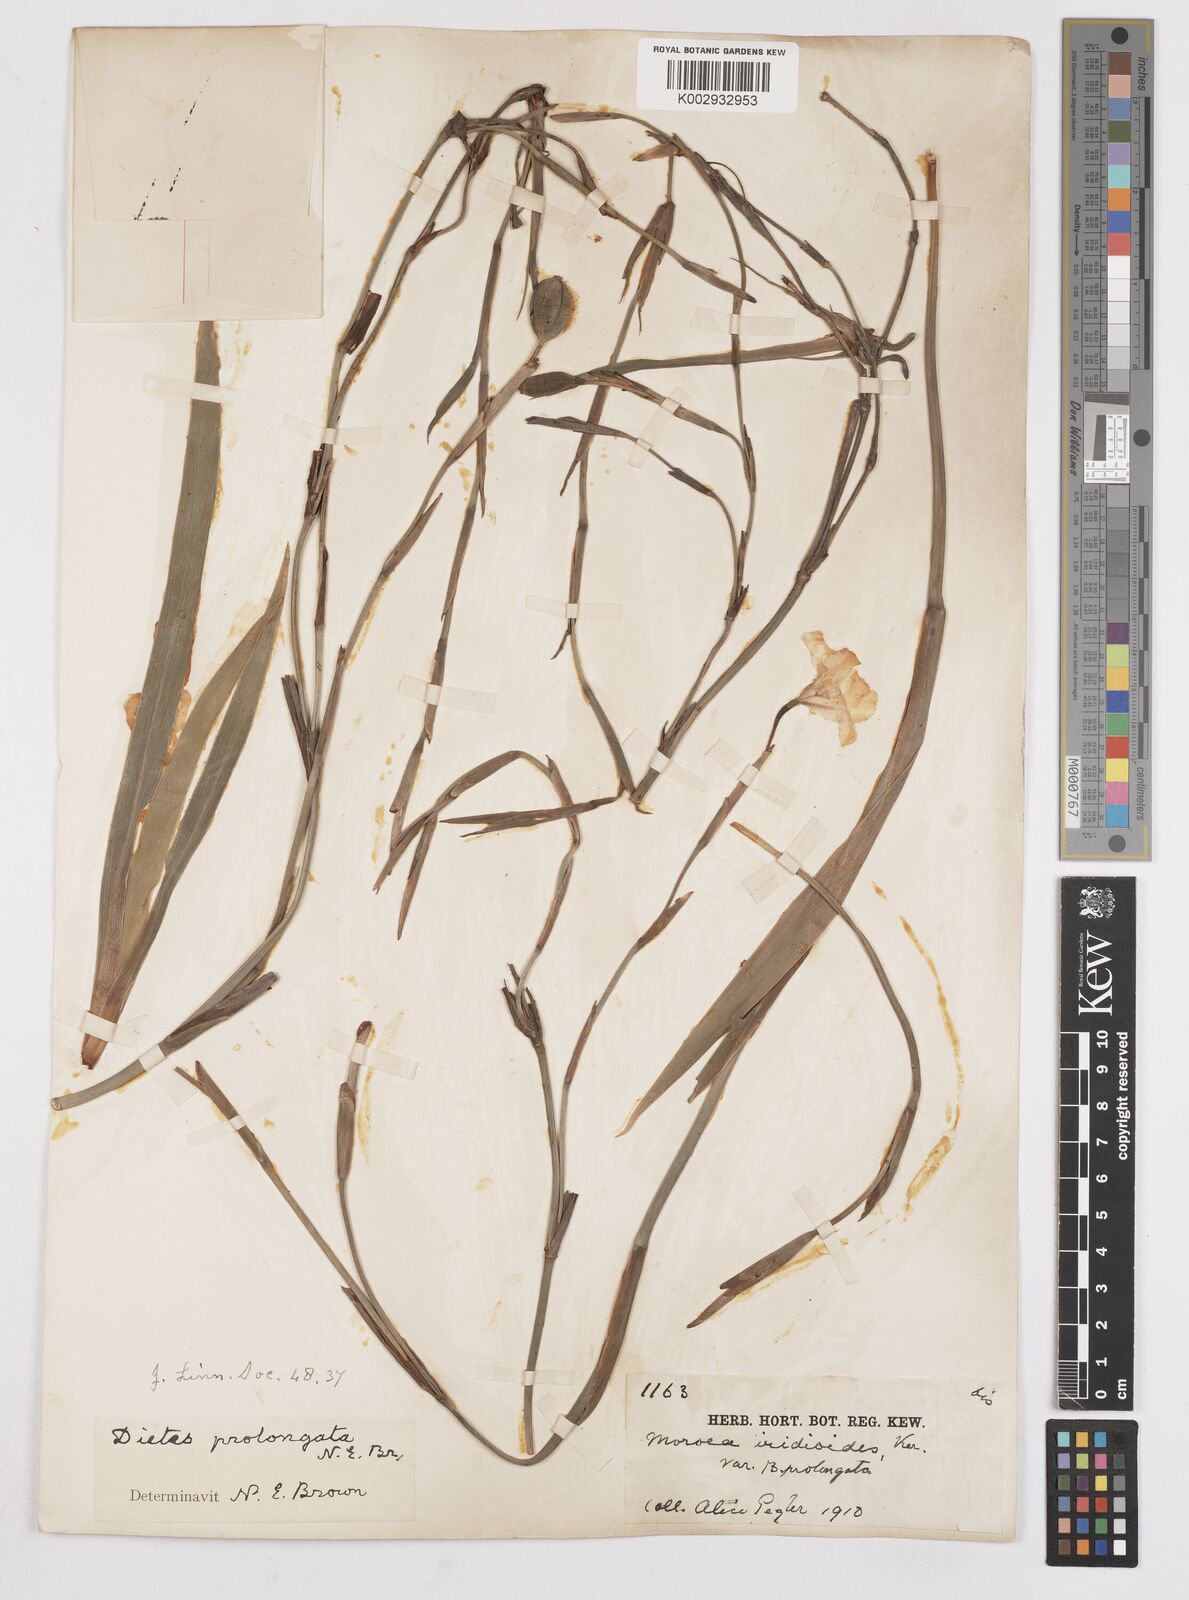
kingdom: Plantae
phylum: Tracheophyta
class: Liliopsida
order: Asparagales
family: Iridaceae
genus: Dietes
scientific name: Dietes iridioides
